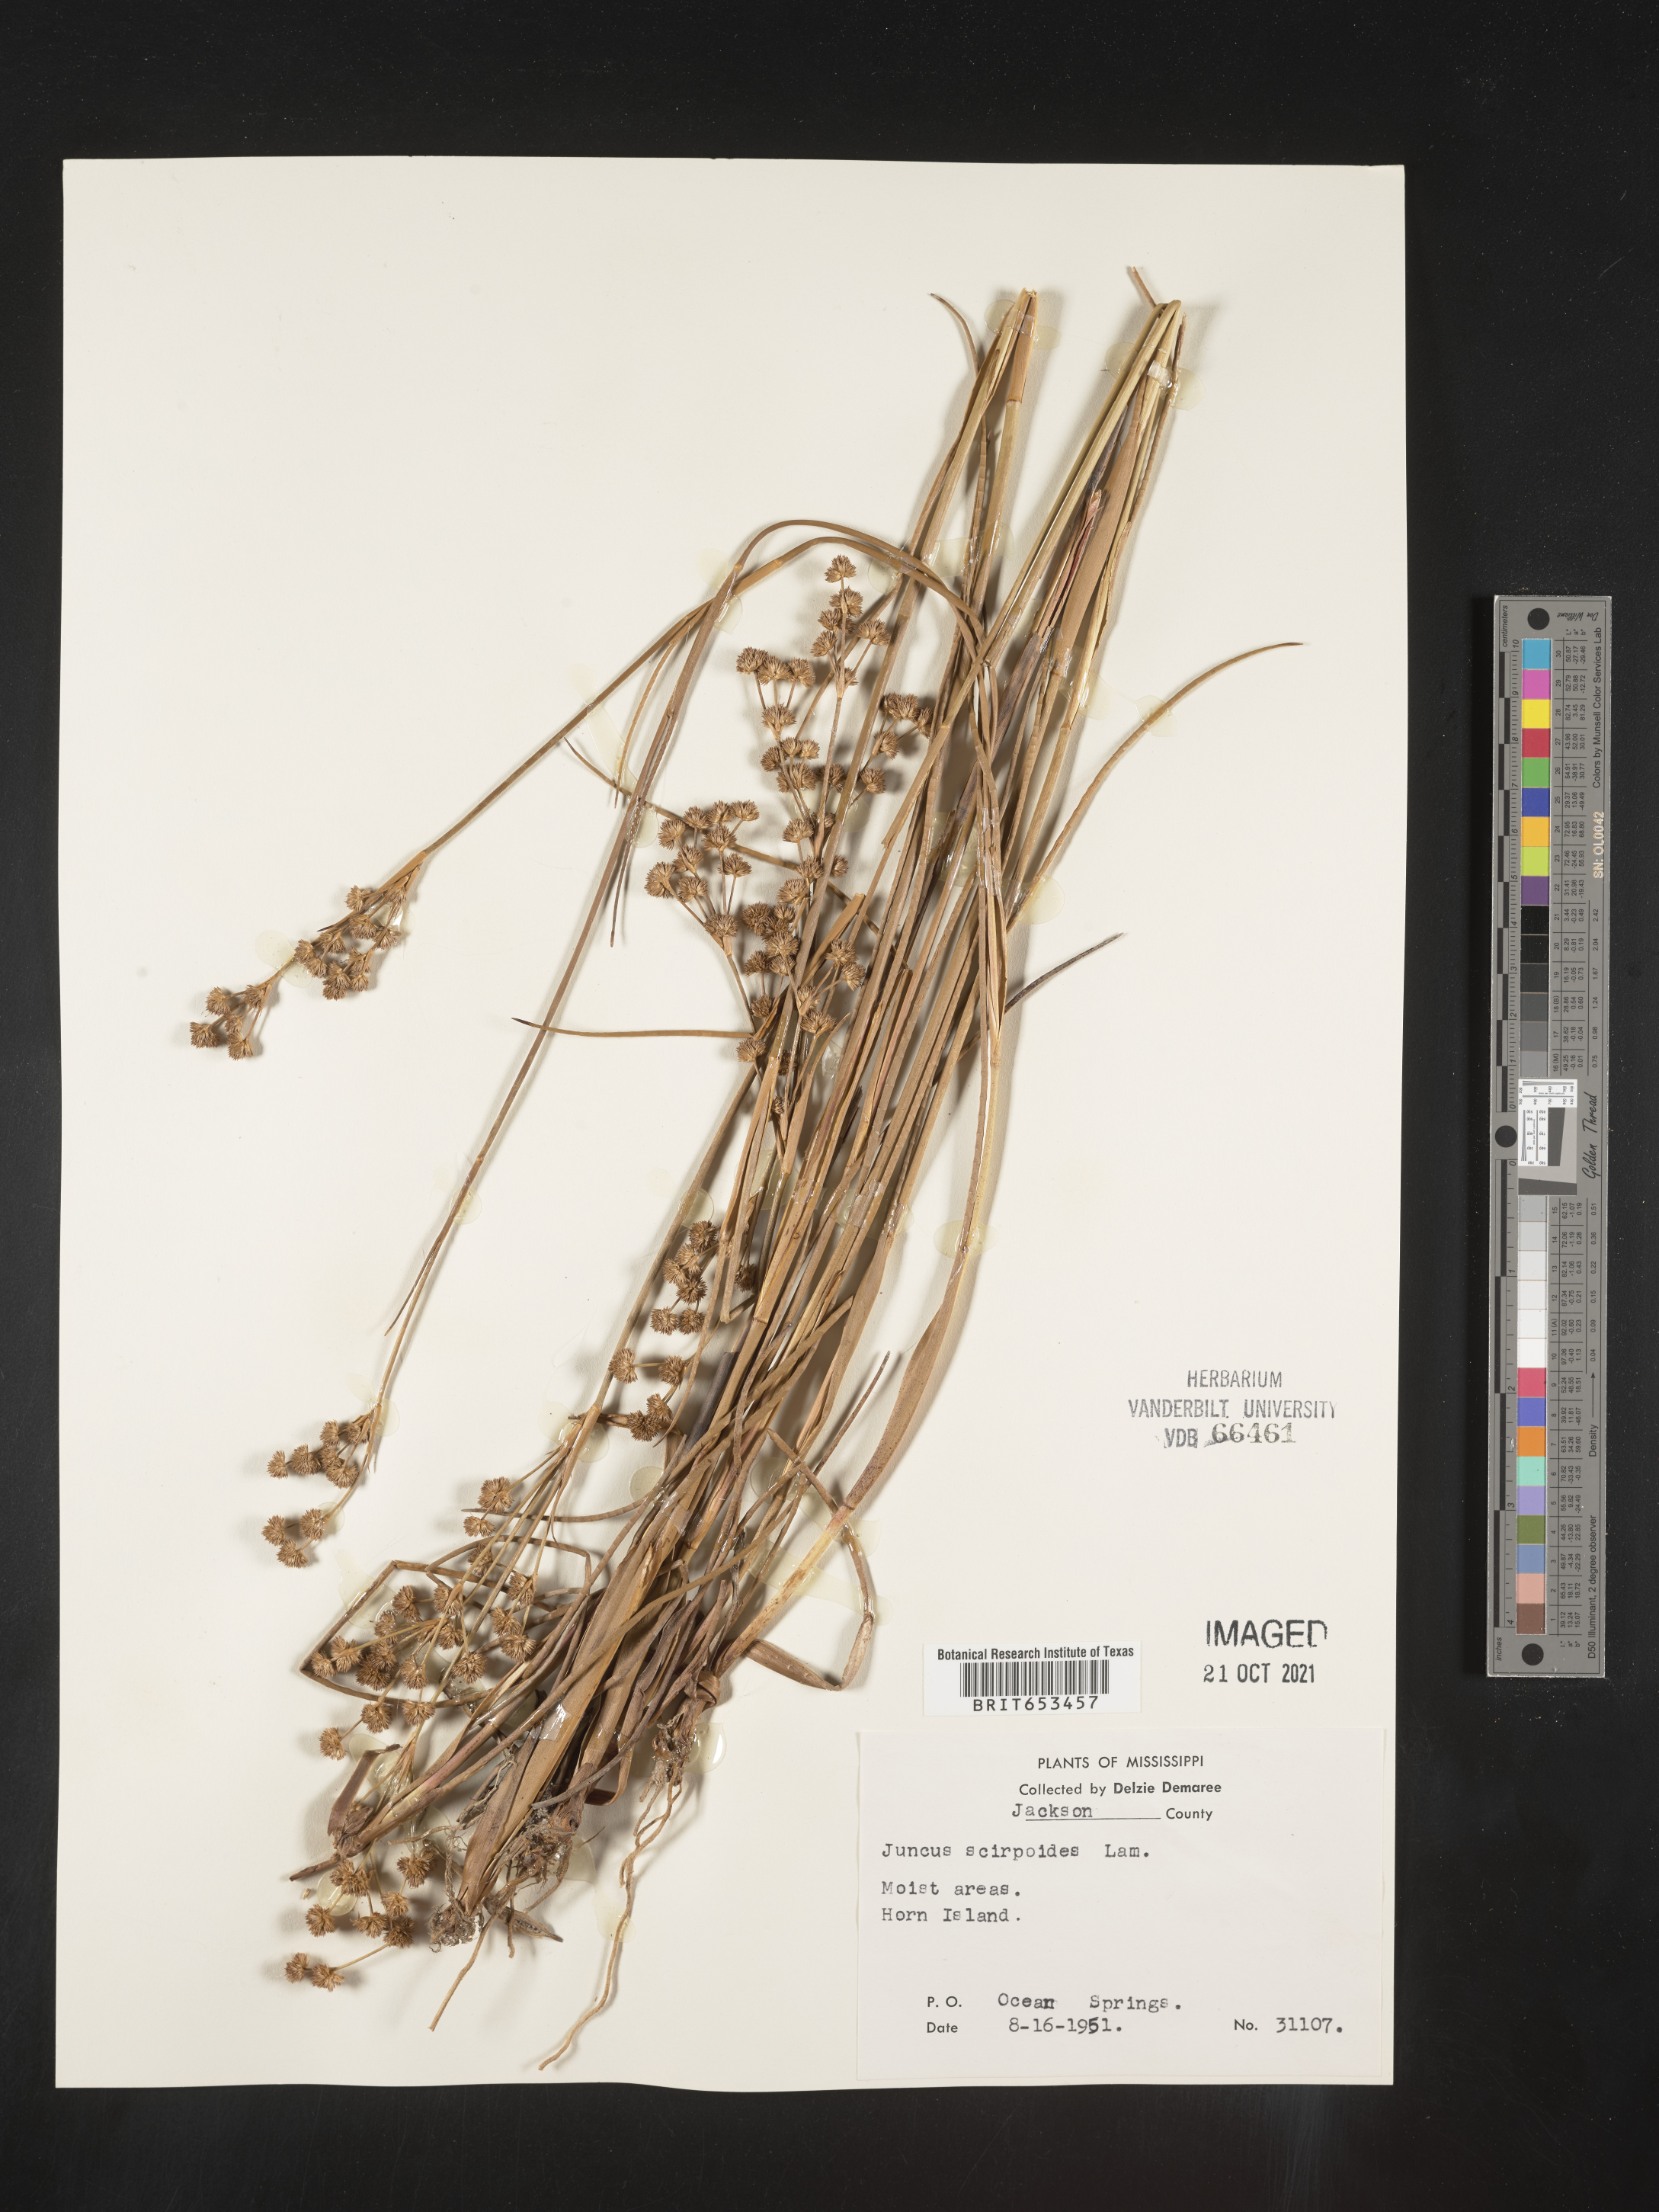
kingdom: Plantae
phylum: Tracheophyta
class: Liliopsida
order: Poales
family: Juncaceae
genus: Juncus
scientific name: Juncus scirpoides
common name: Needlepod rush
